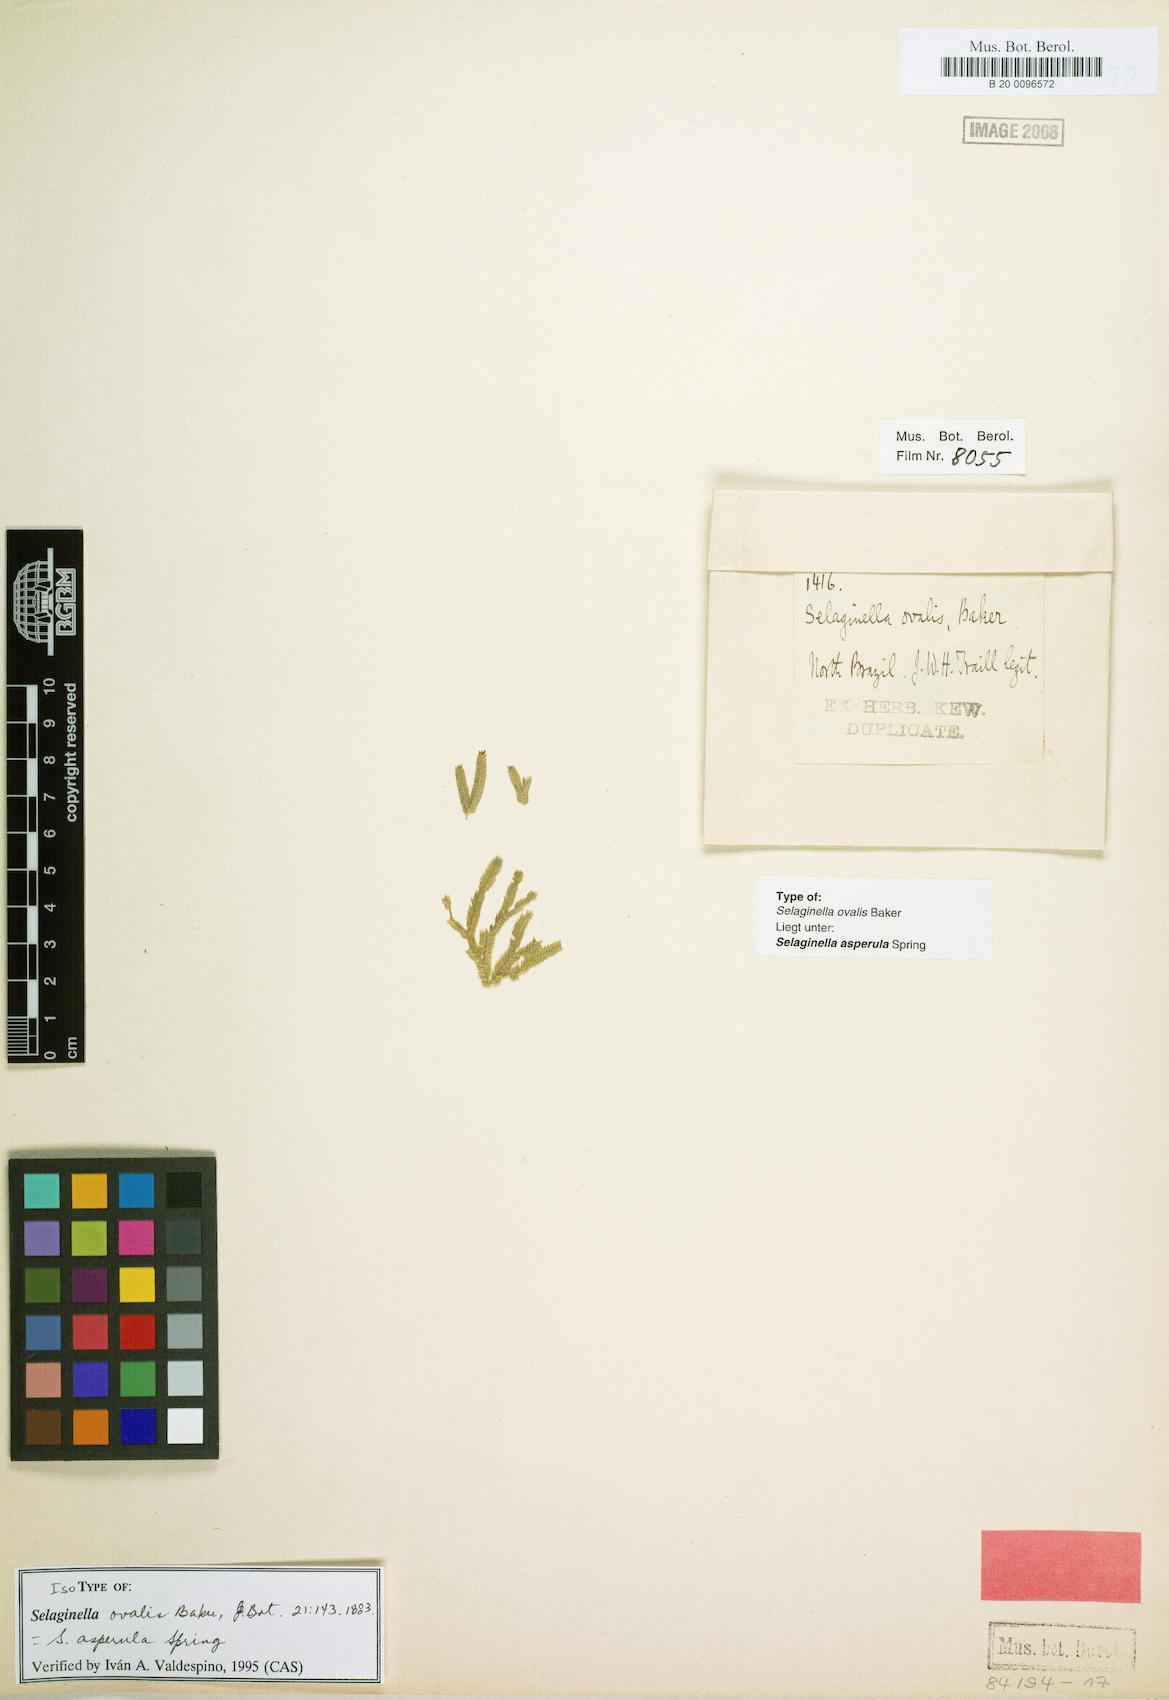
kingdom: Plantae
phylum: Tracheophyta
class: Lycopodiopsida
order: Selaginellales
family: Selaginellaceae
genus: Selaginella
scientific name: Selaginella asperula
